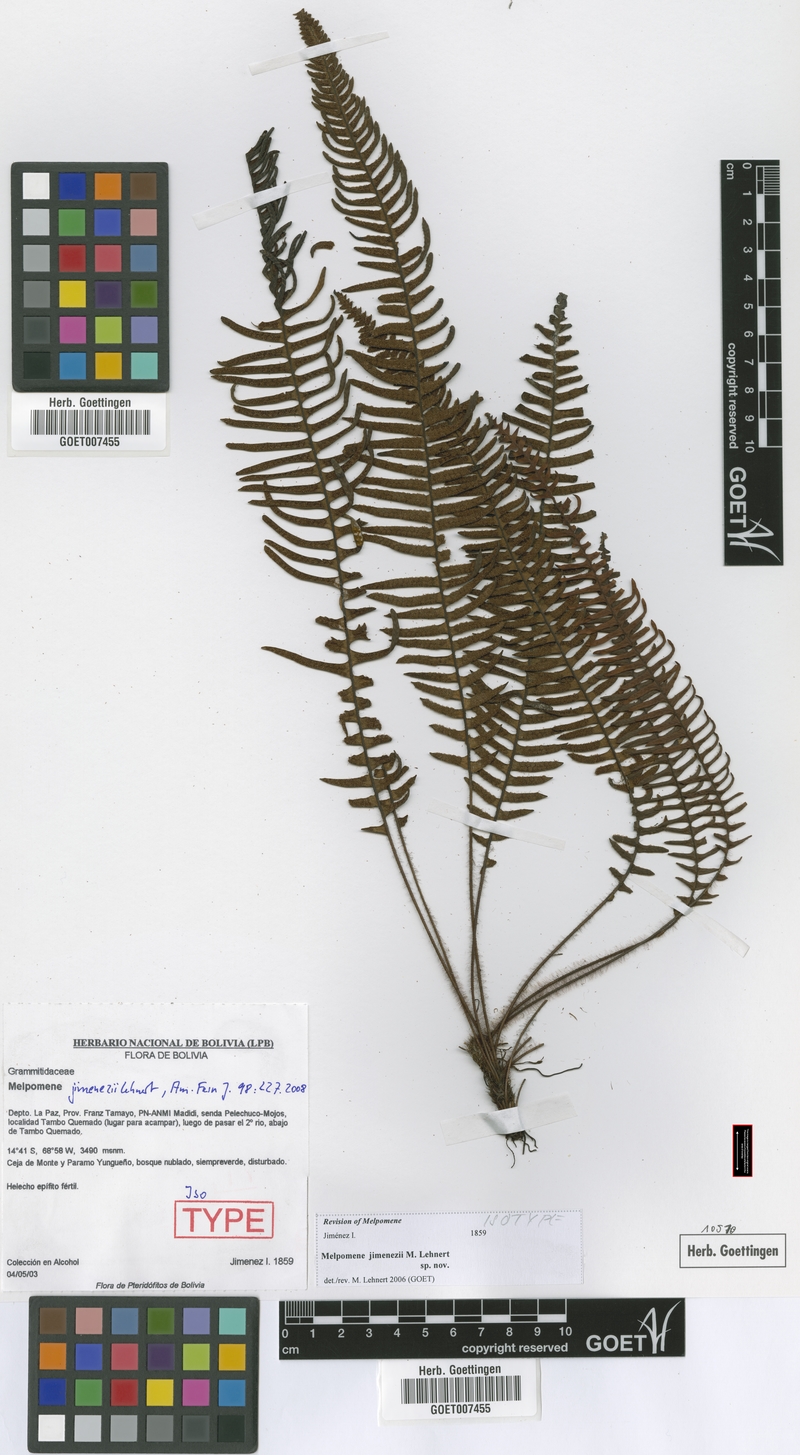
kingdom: Plantae
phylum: Tracheophyta
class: Polypodiopsida
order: Polypodiales
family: Polypodiaceae
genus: Melpomene
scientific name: Melpomene jimenezii
